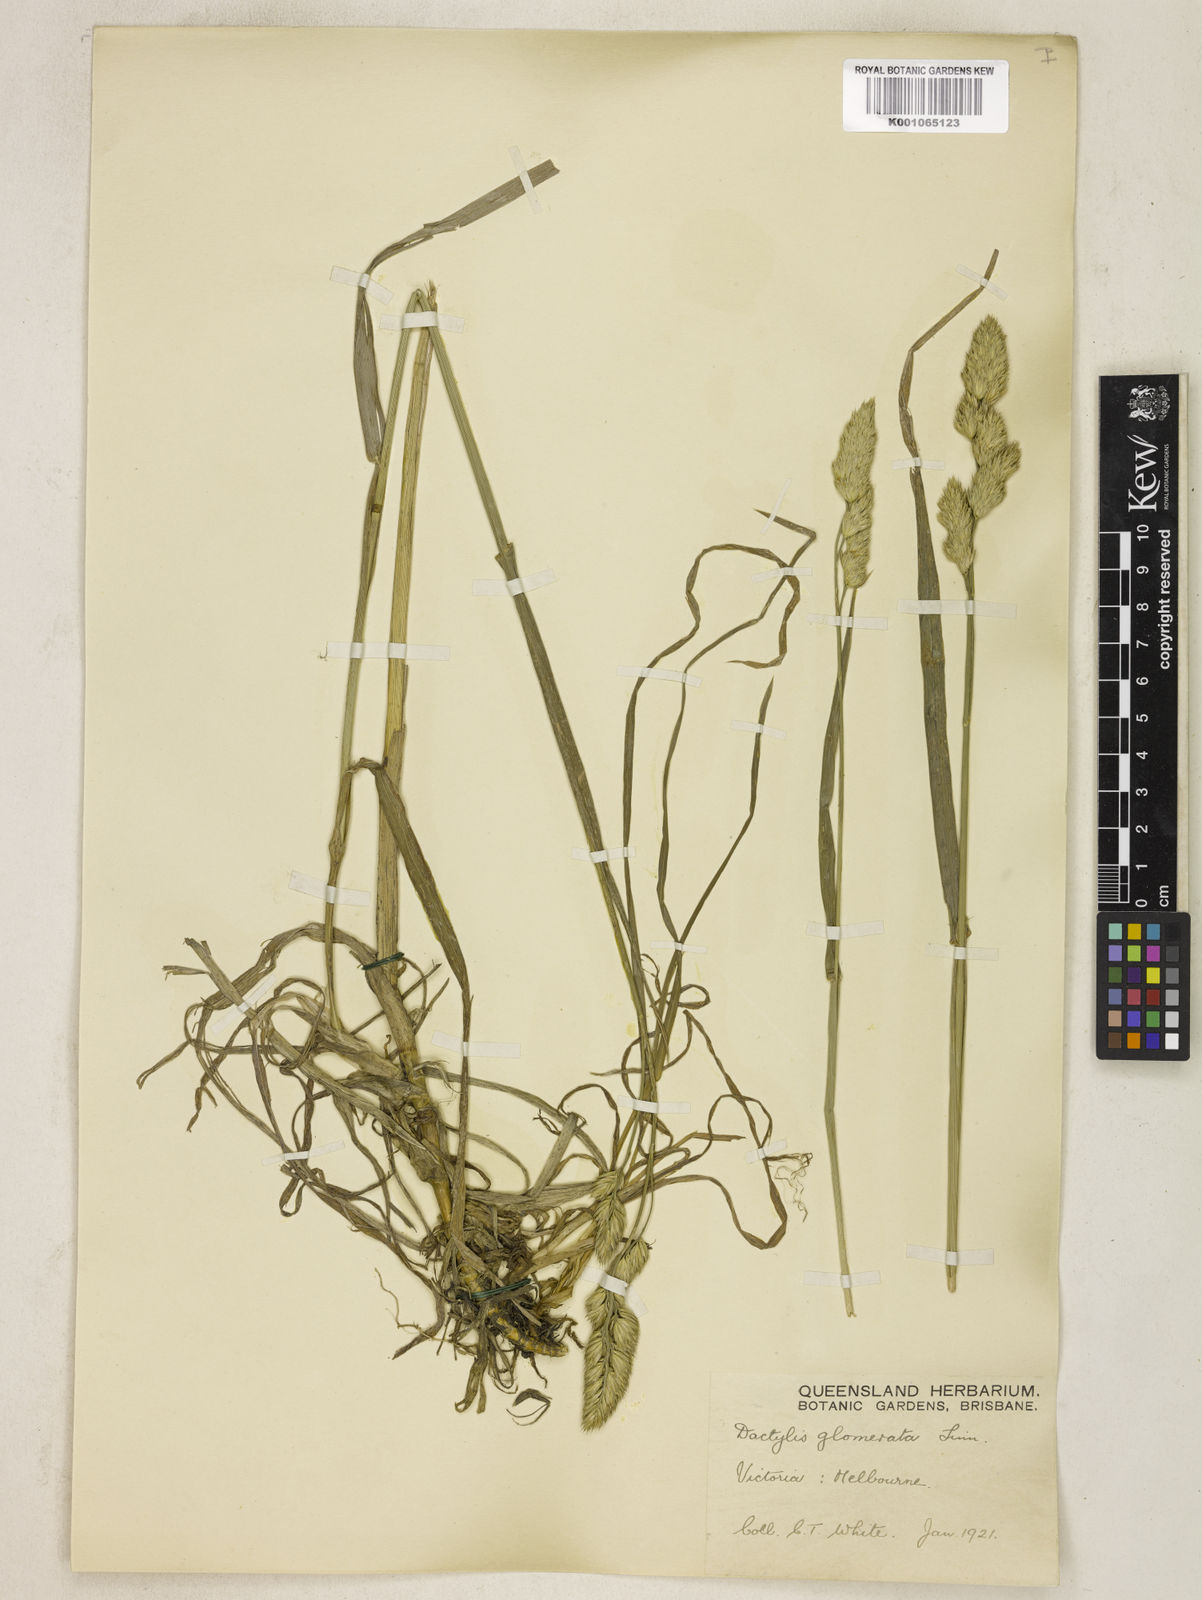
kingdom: Plantae
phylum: Tracheophyta
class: Liliopsida
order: Poales
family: Poaceae
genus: Dactylis
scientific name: Dactylis glomerata
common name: Orchardgrass
